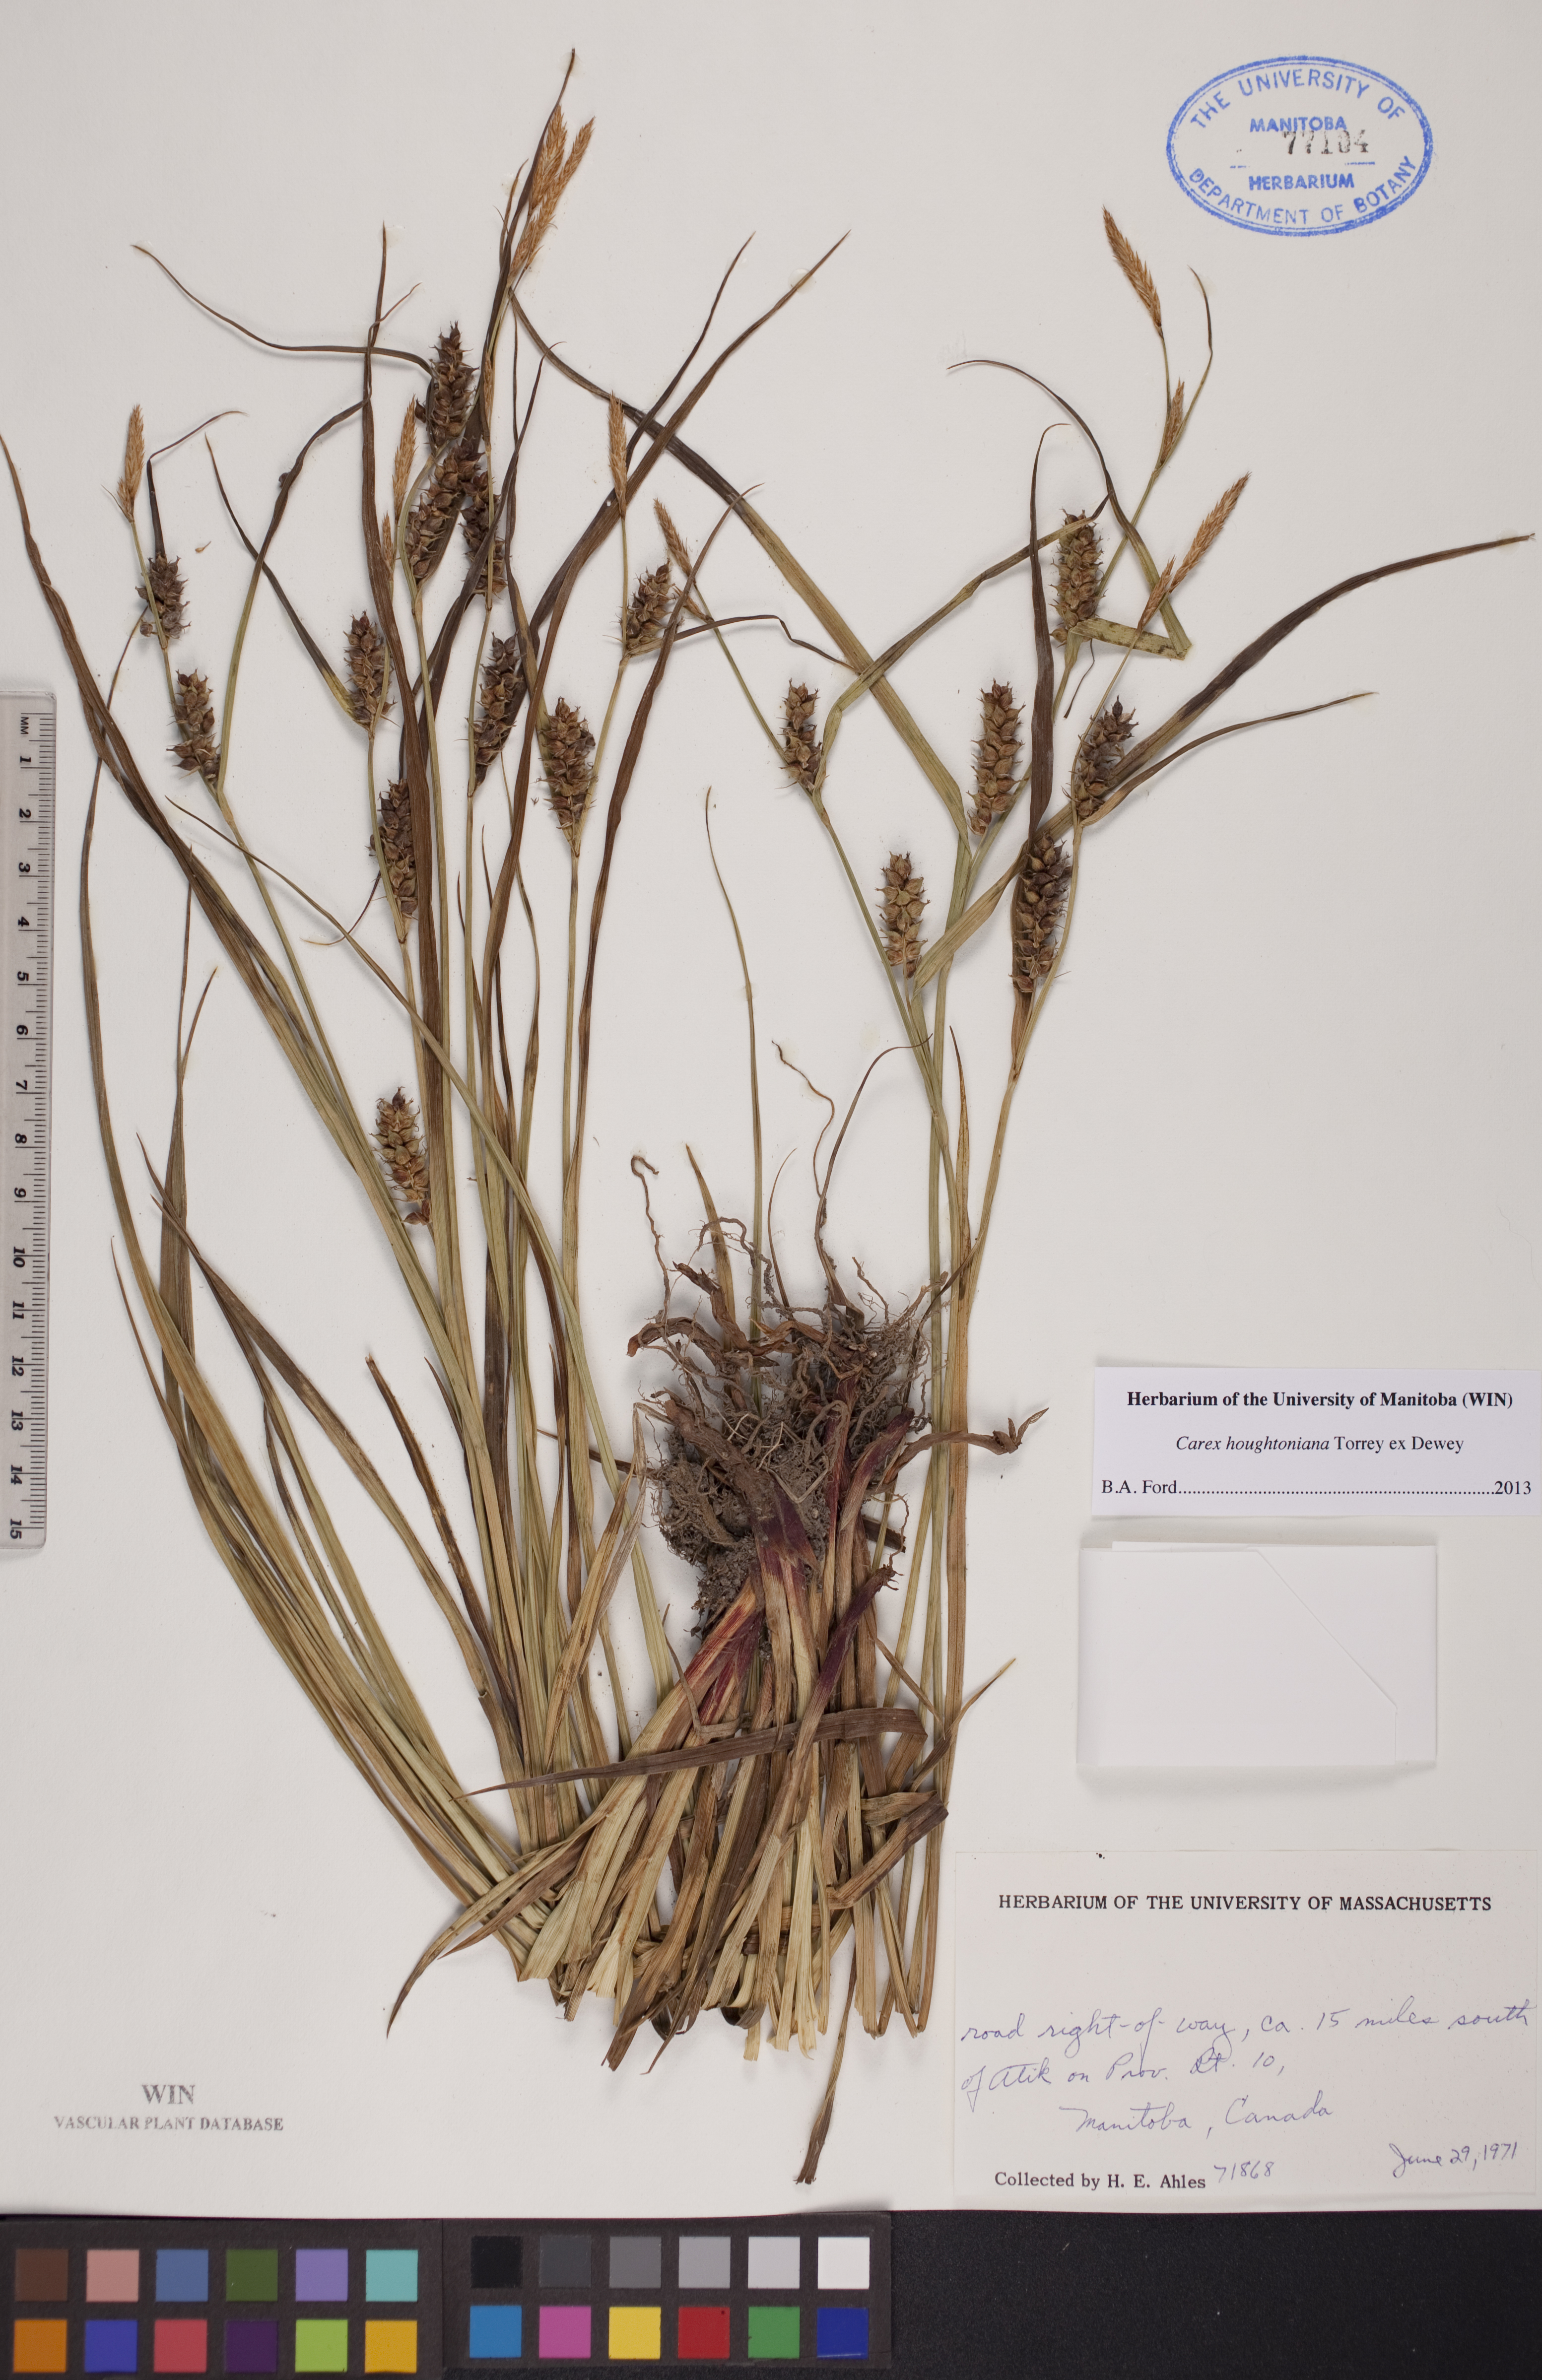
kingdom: Plantae
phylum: Tracheophyta
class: Liliopsida
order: Poales
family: Cyperaceae
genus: Carex
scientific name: Carex houghtoniana
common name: Houghton's sedge
